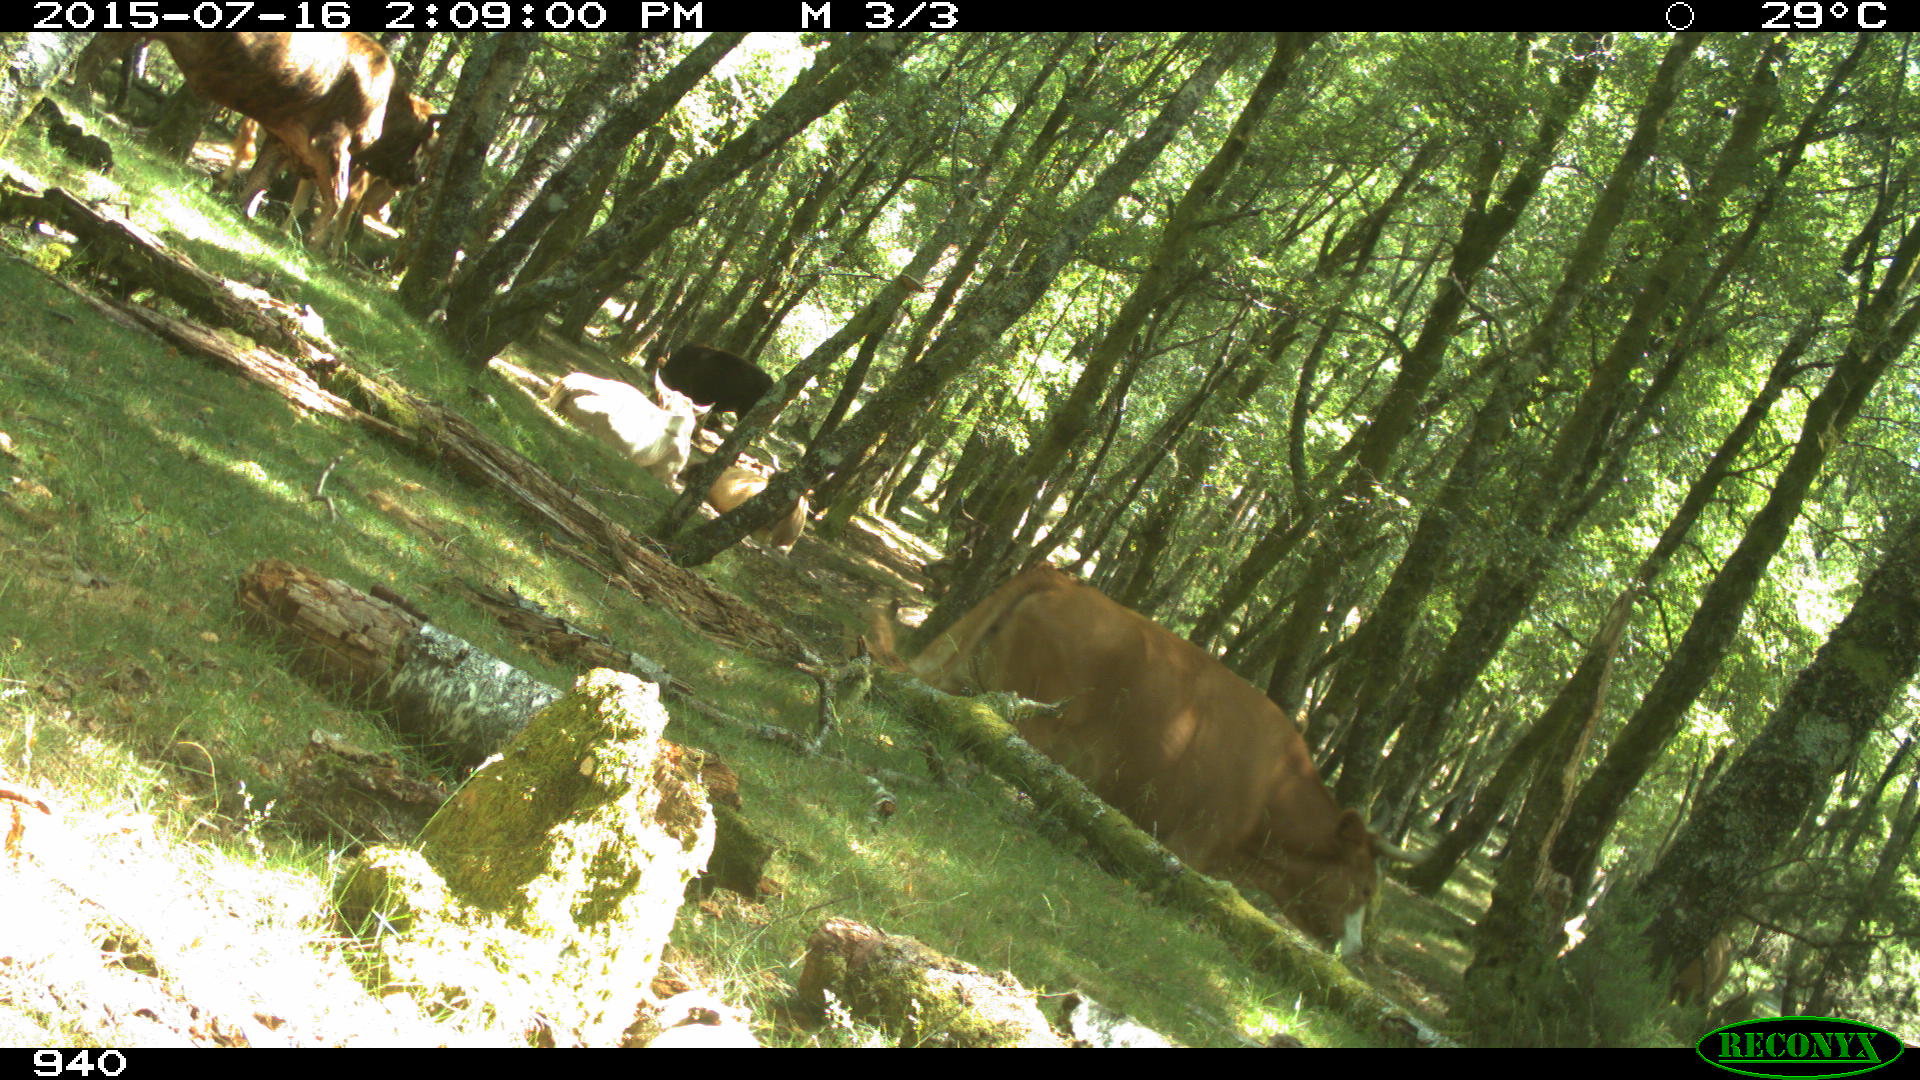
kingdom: Animalia
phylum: Chordata
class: Mammalia
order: Artiodactyla
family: Bovidae
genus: Bos
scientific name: Bos taurus
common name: Domesticated cattle
